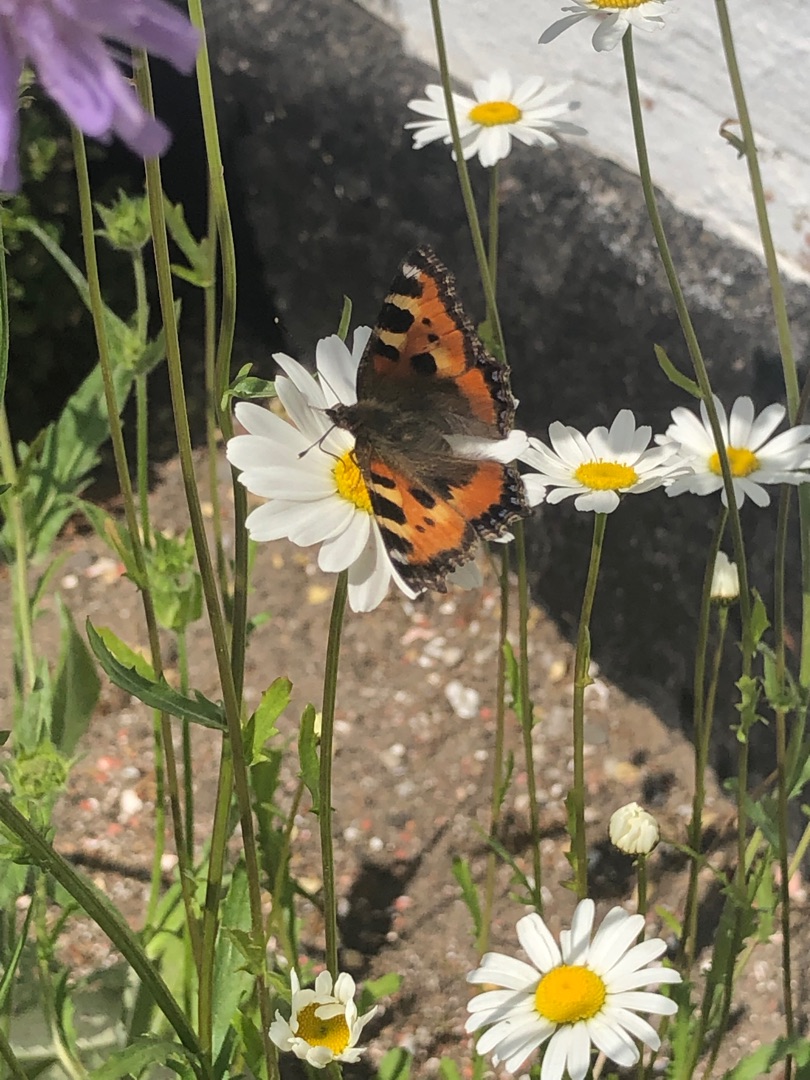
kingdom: Animalia
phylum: Arthropoda
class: Insecta
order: Lepidoptera
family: Nymphalidae
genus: Aglais
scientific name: Aglais urticae
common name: Nældens takvinge
